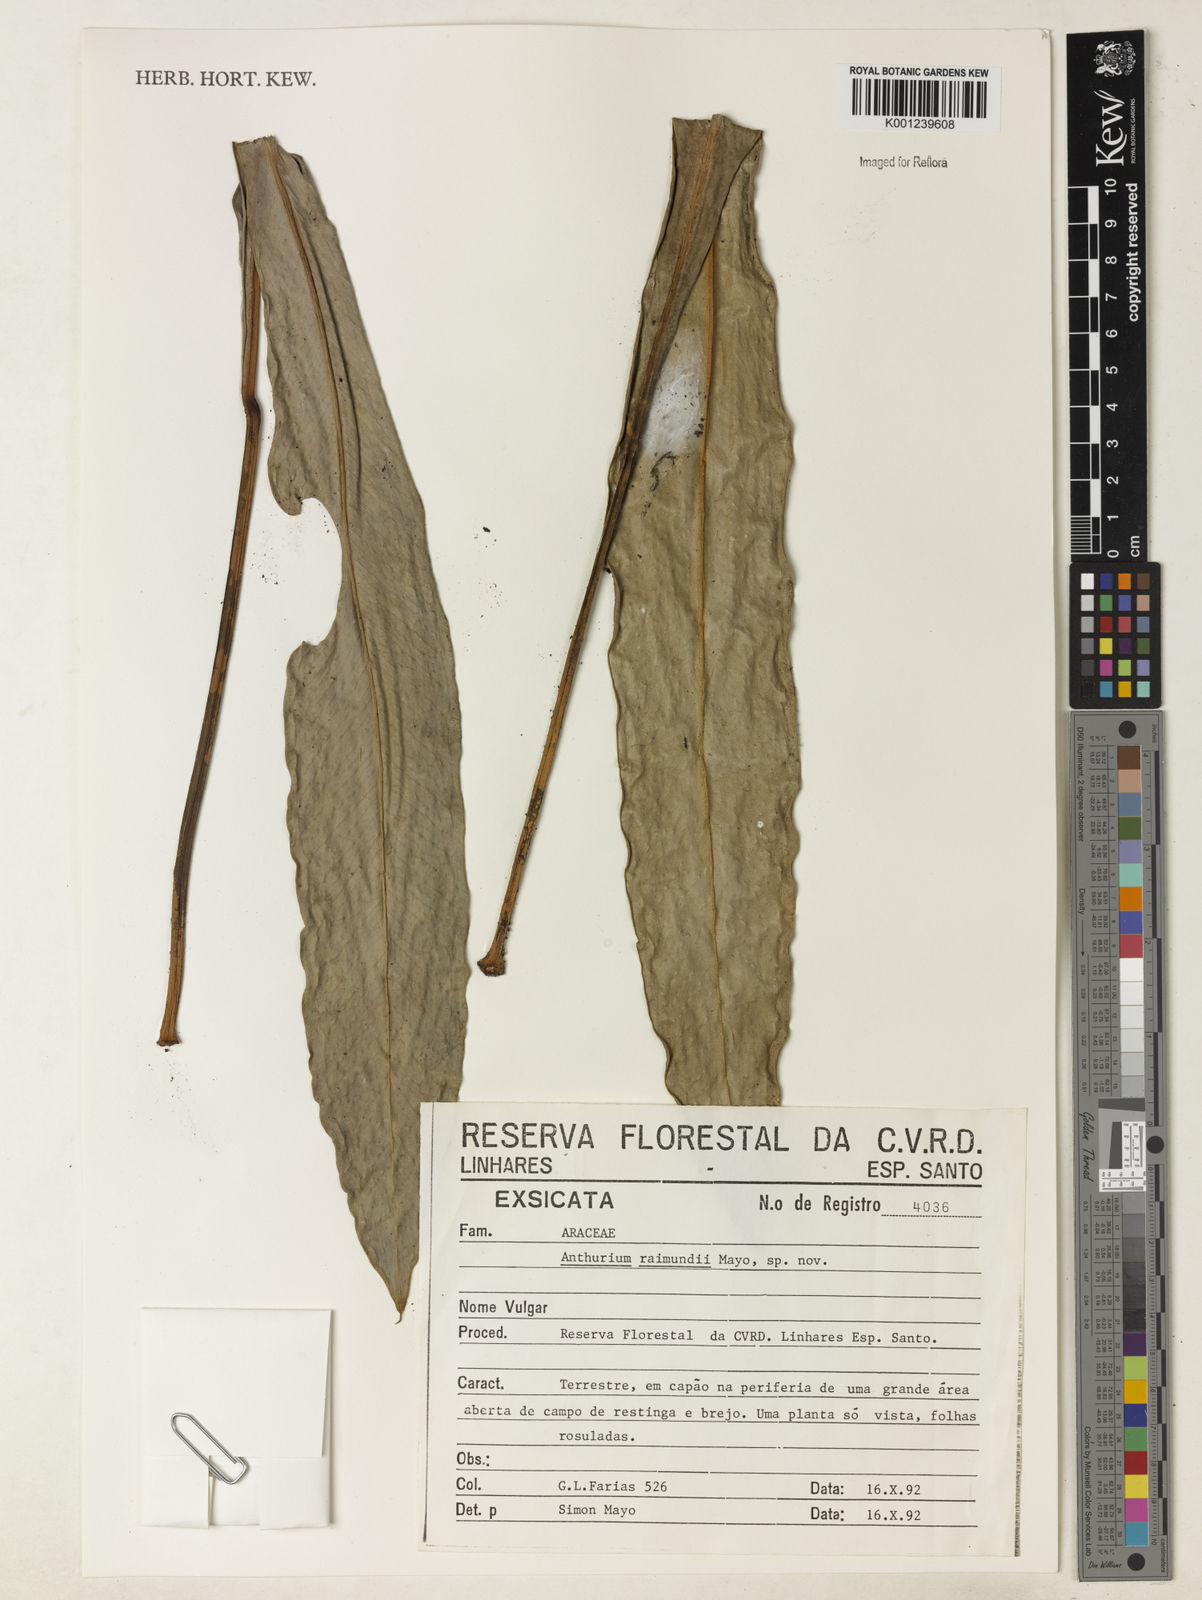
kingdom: Plantae
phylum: Tracheophyta
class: Liliopsida
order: Alismatales
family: Araceae
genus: Anthurium
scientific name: Anthurium raimundii
